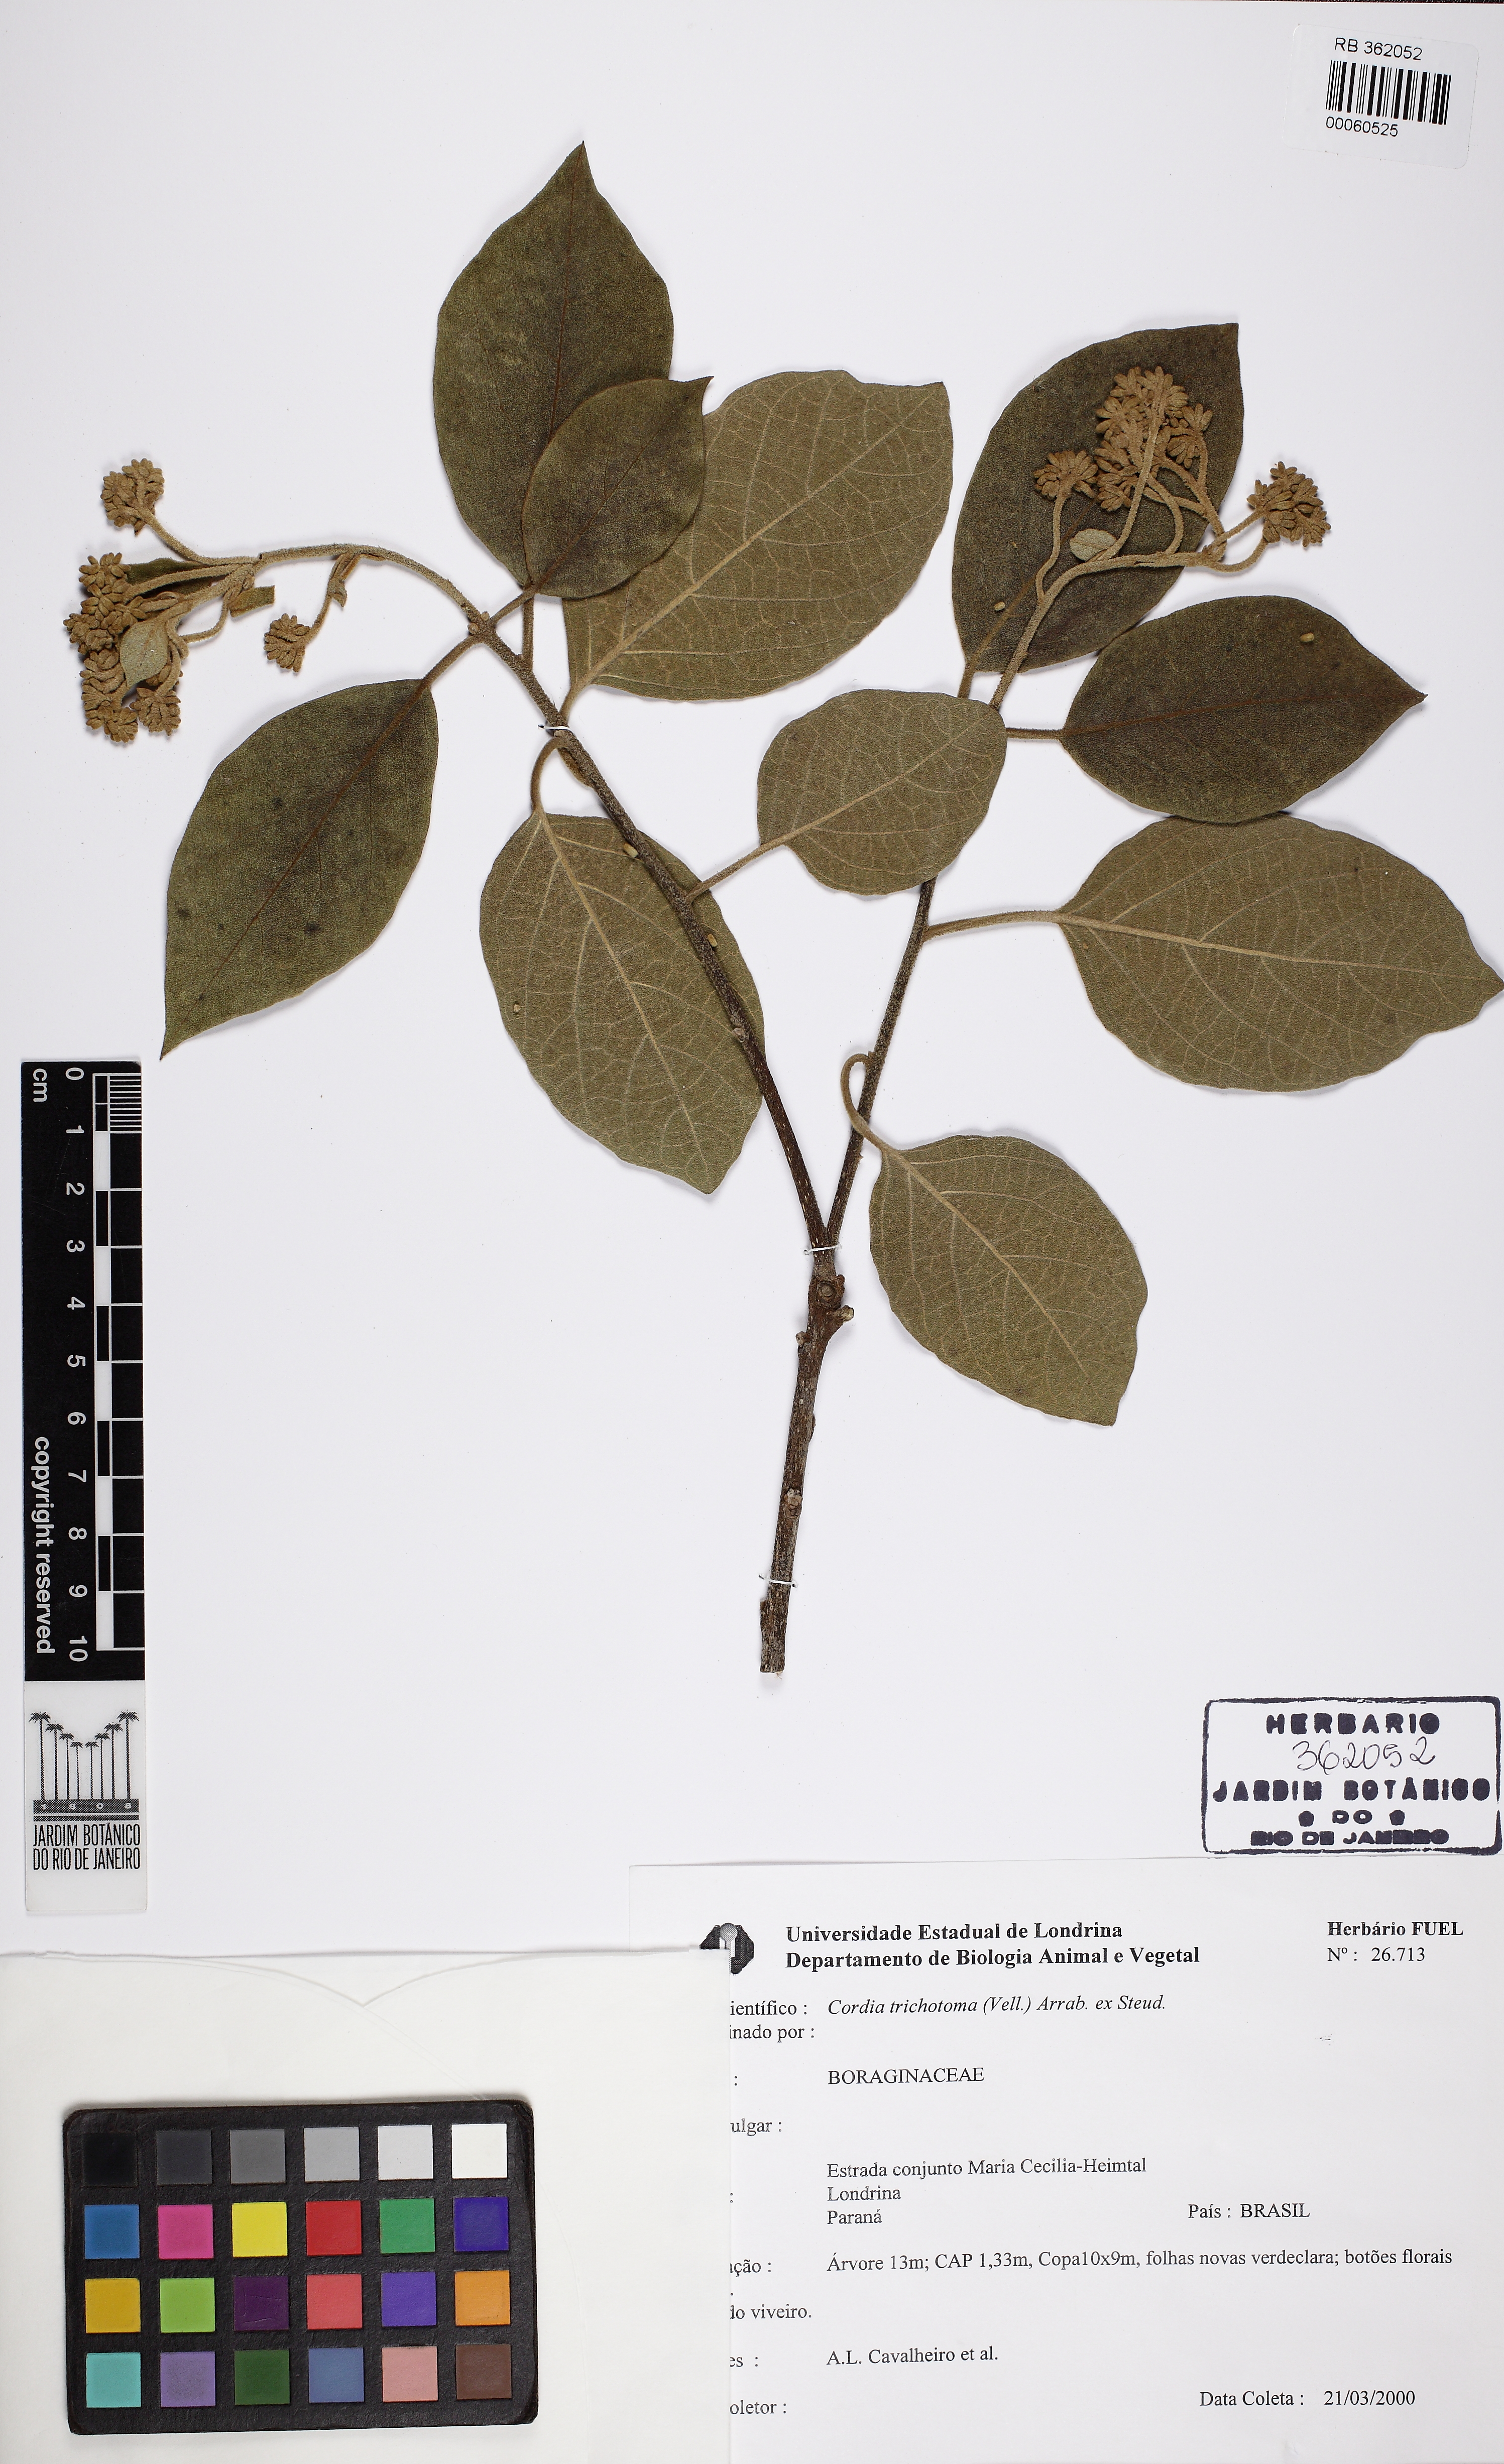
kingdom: Plantae
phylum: Tracheophyta
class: Magnoliopsida
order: Boraginales
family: Cordiaceae
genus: Cordia
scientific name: Cordia trichotoma
